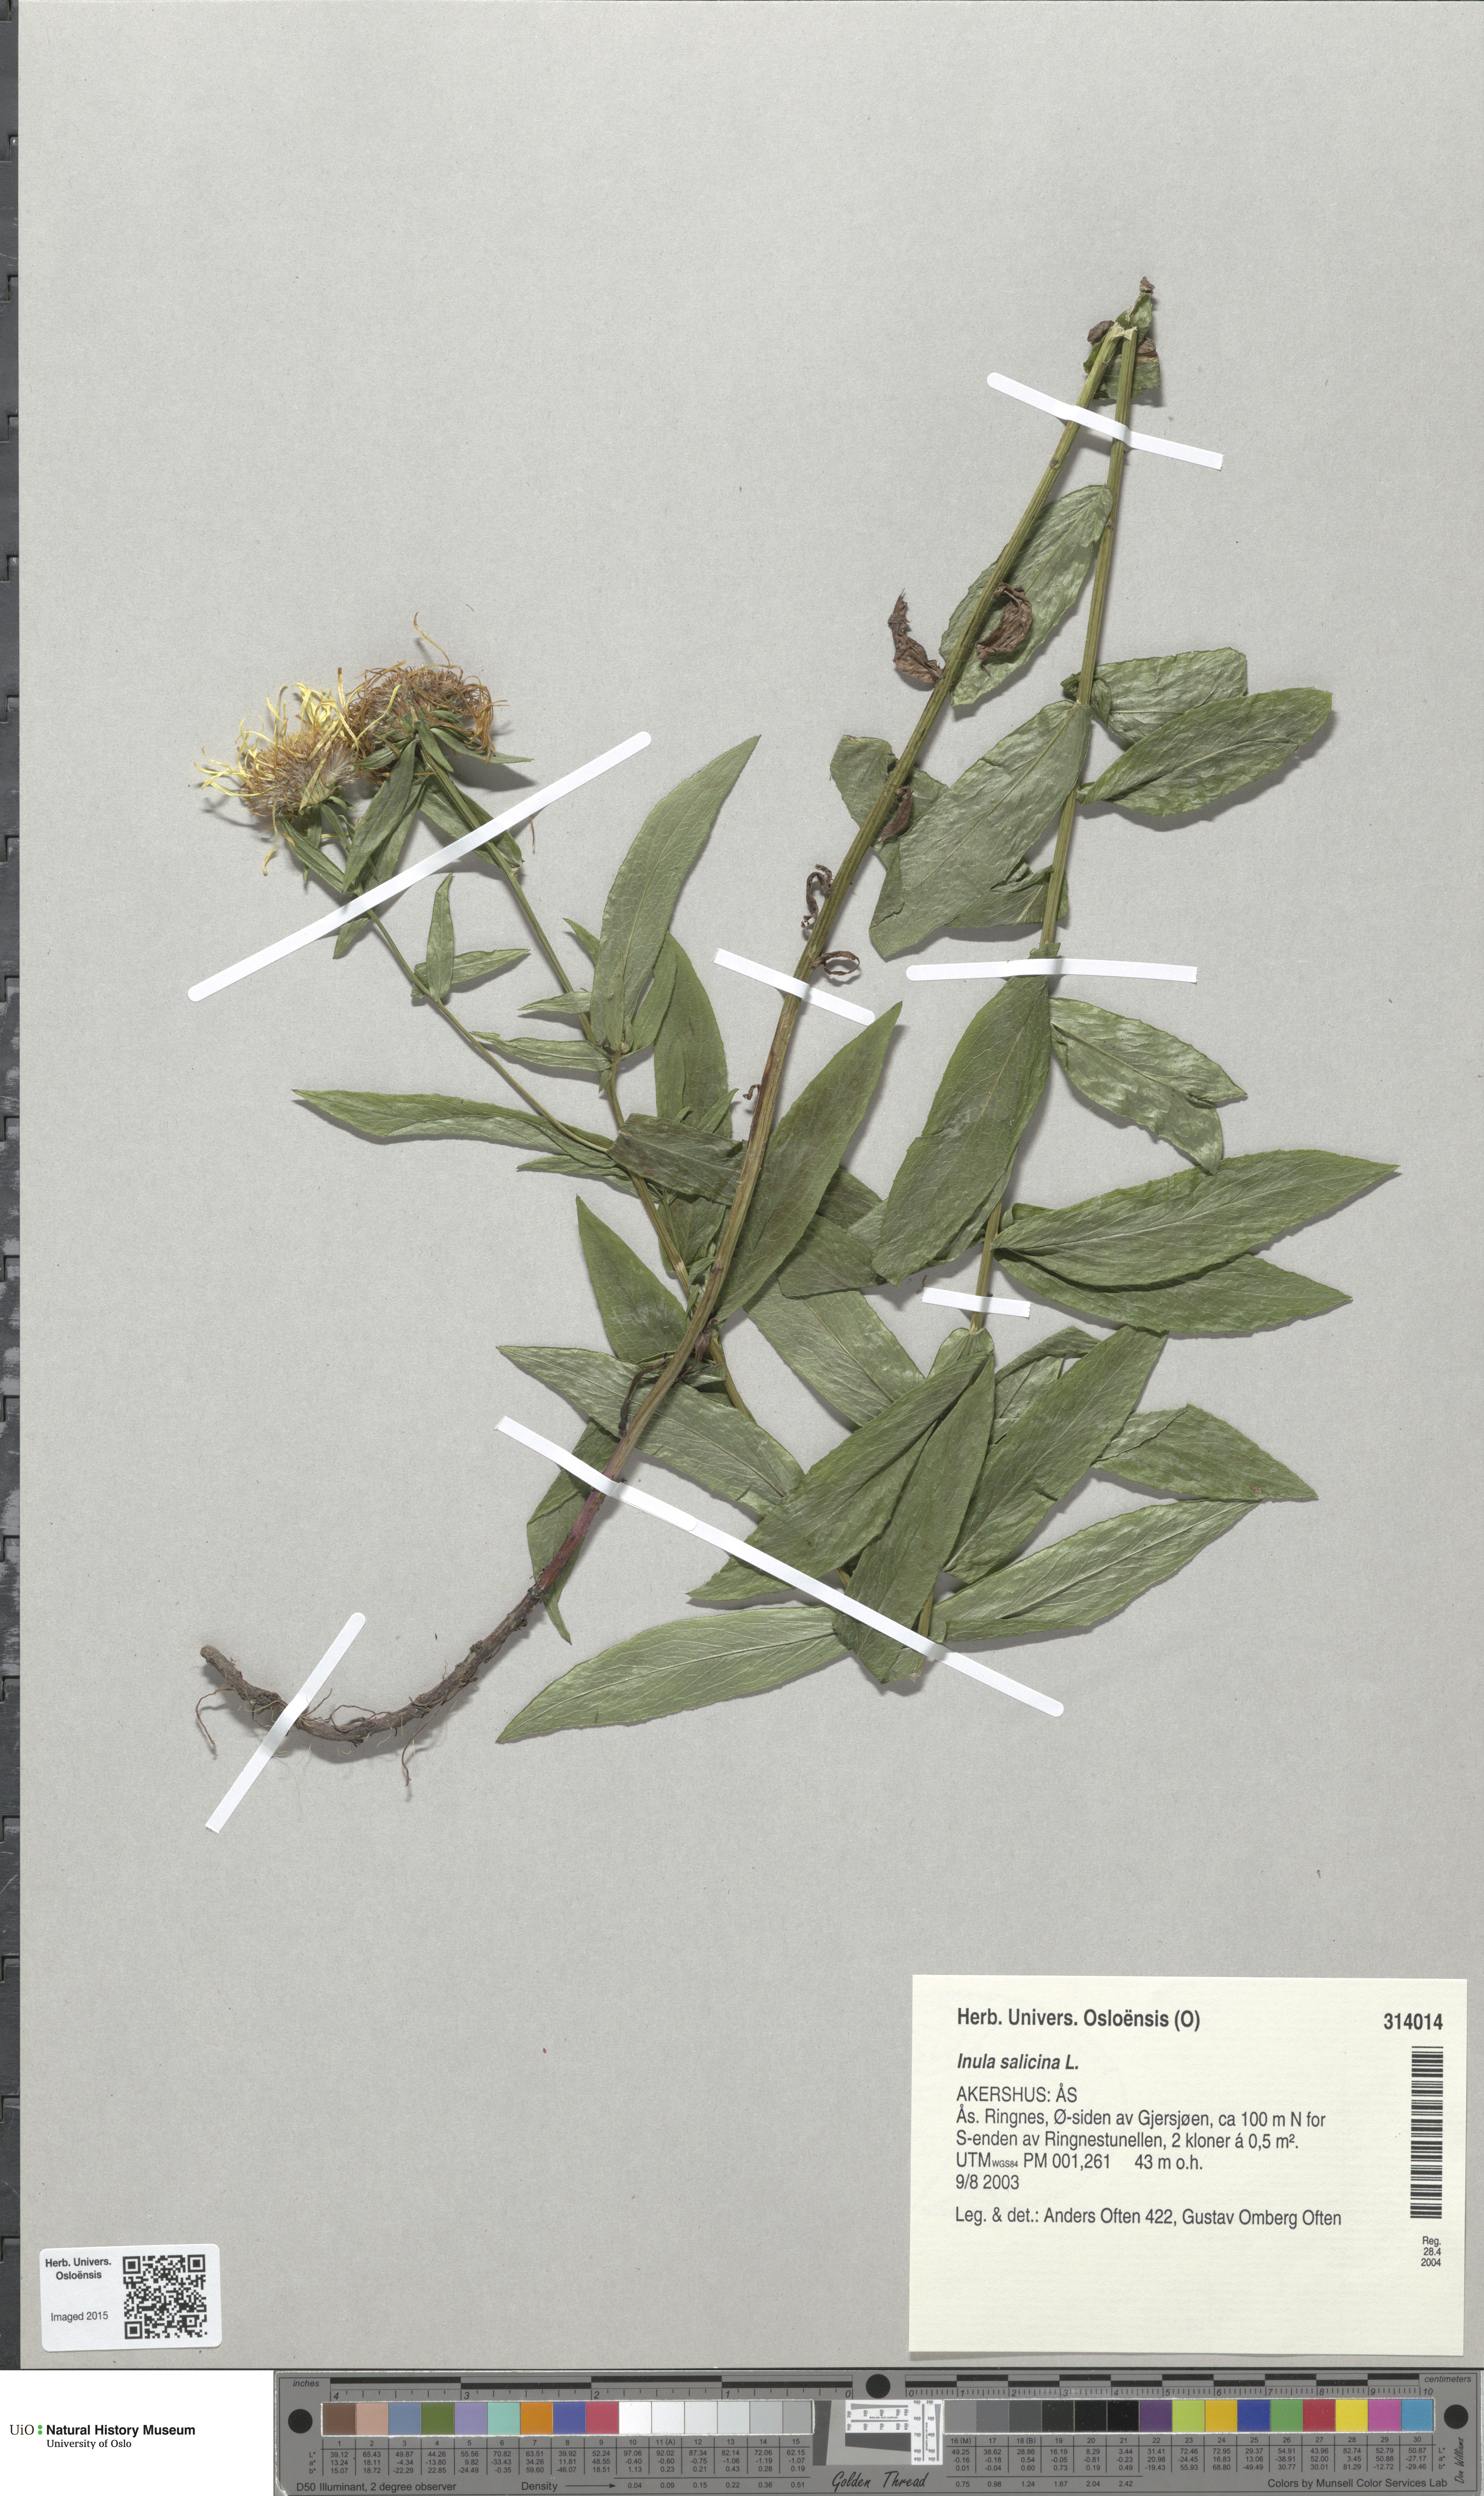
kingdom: Plantae
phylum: Tracheophyta
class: Magnoliopsida
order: Asterales
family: Asteraceae
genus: Pentanema
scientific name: Pentanema salicinum
